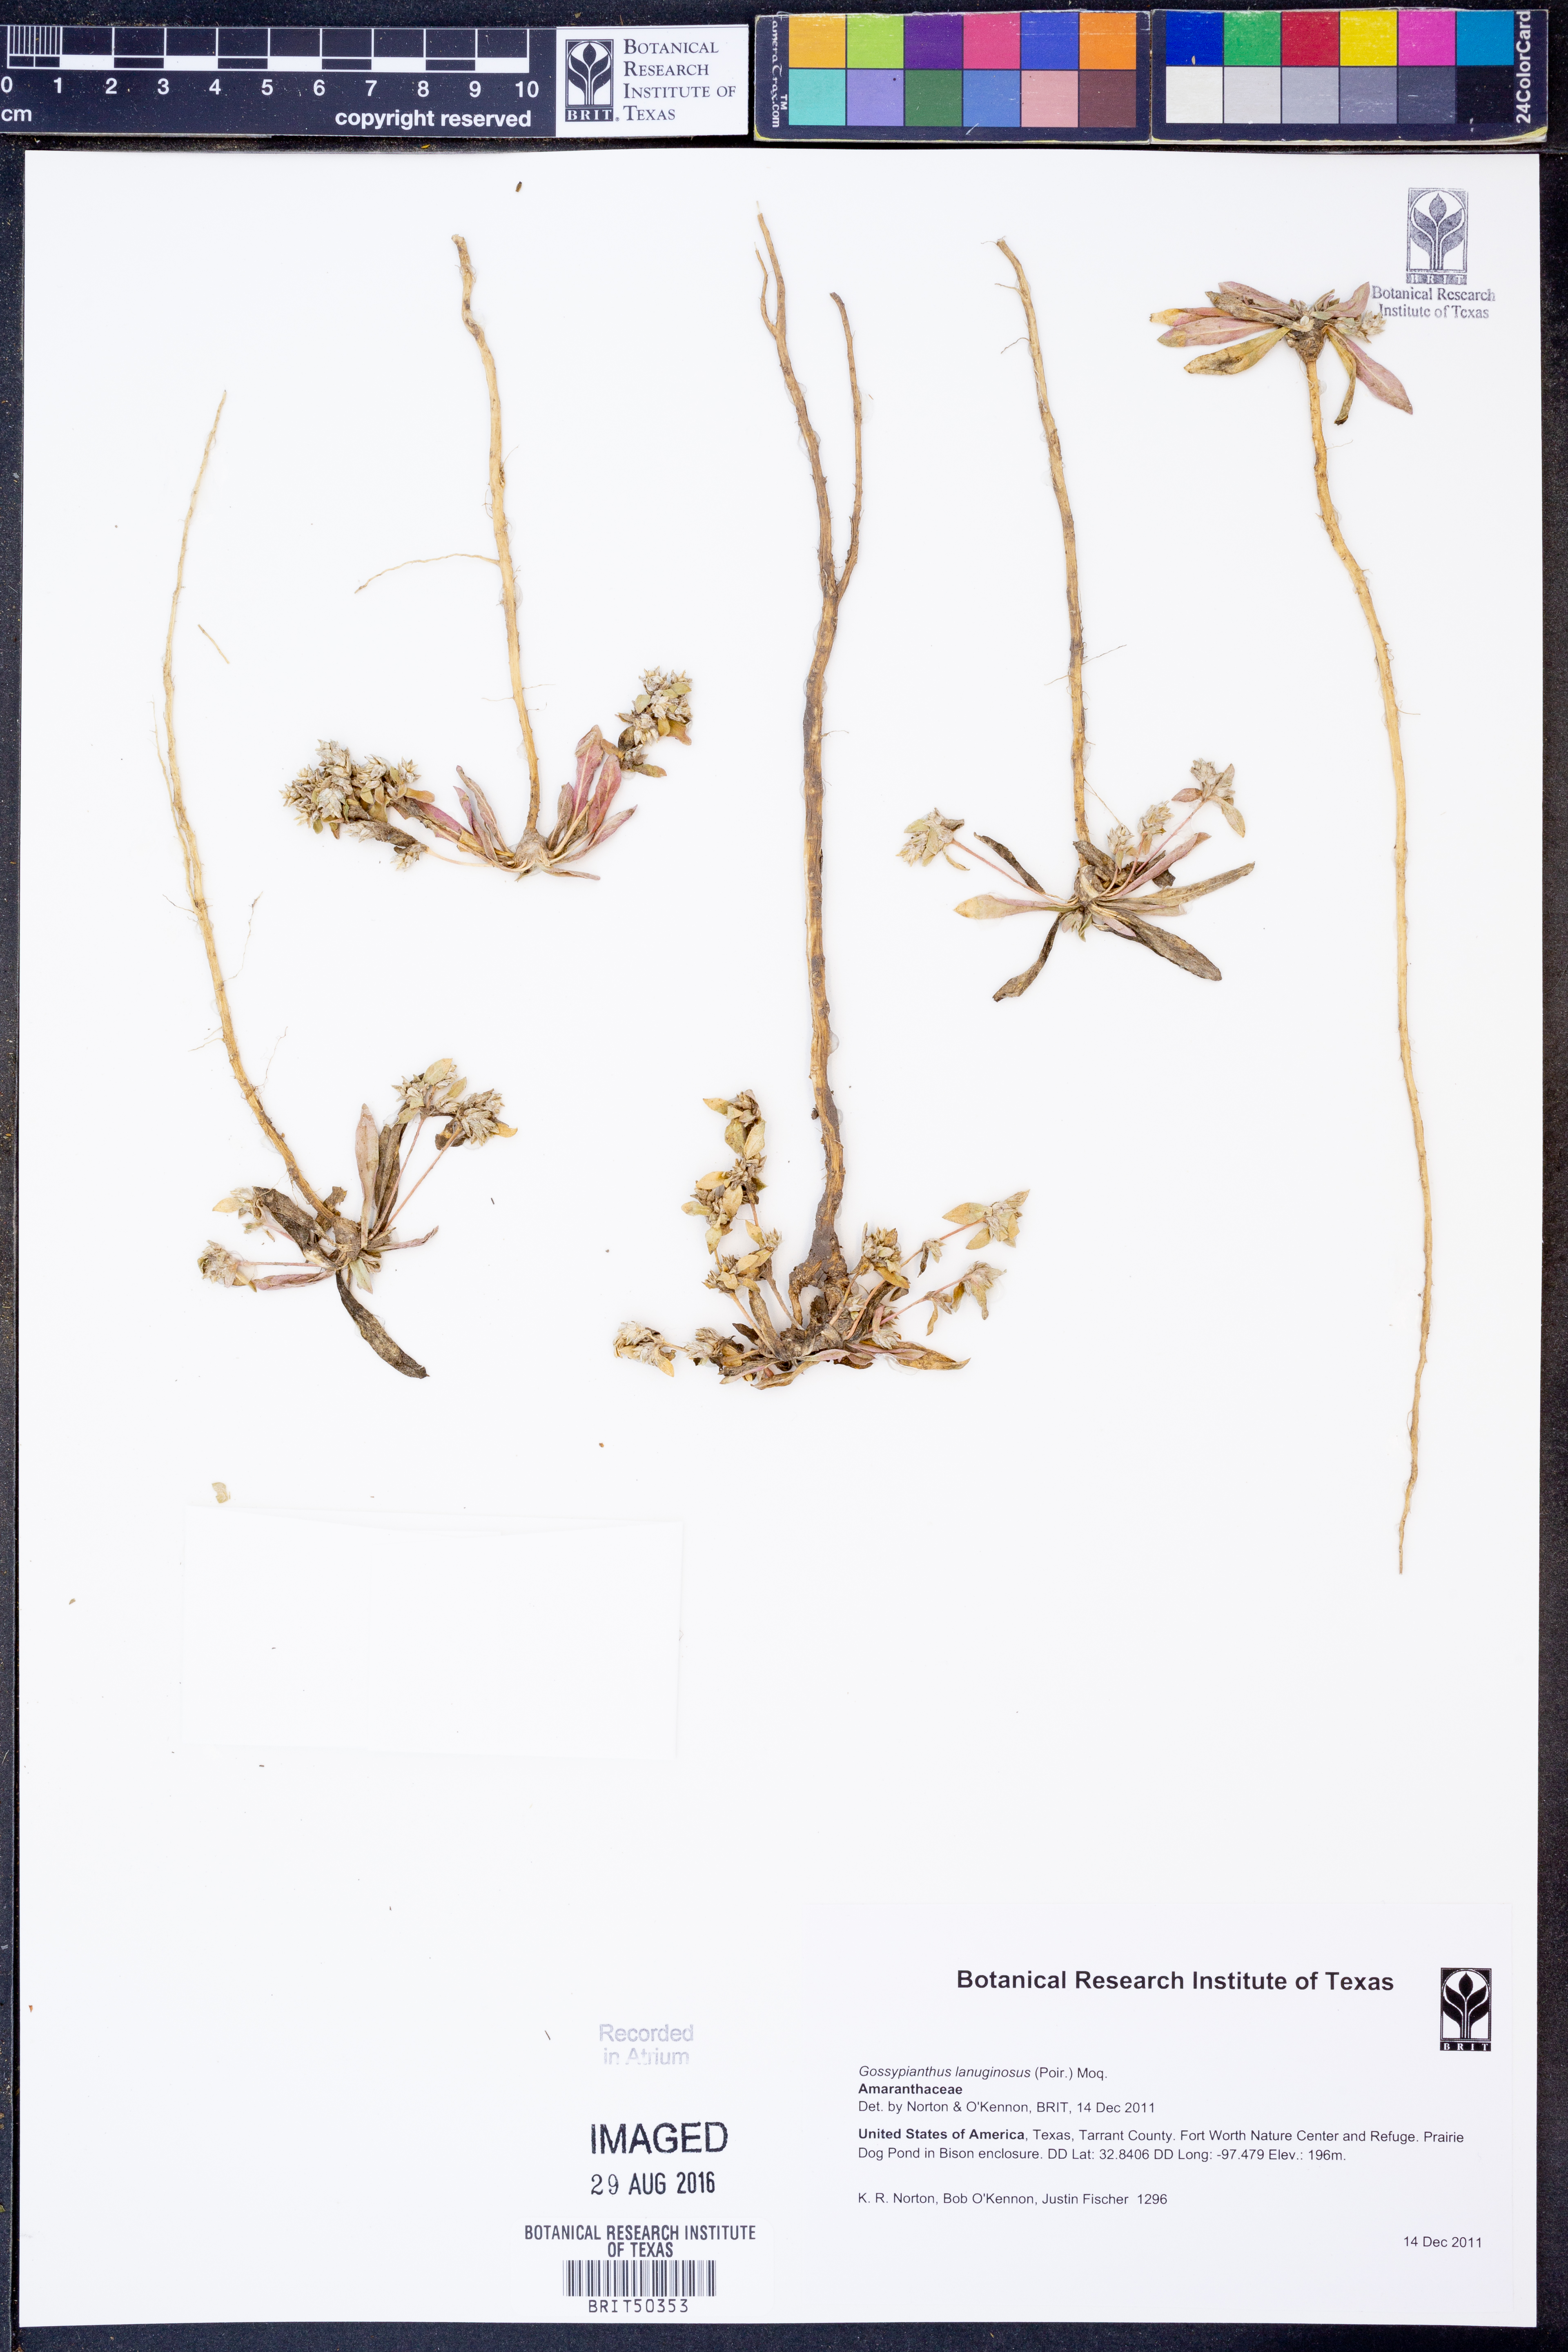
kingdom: Plantae
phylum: Tracheophyta
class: Magnoliopsida
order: Caryophyllales
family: Amaranthaceae
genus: Gomphrena
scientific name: Gomphrena lanuparonychioides
